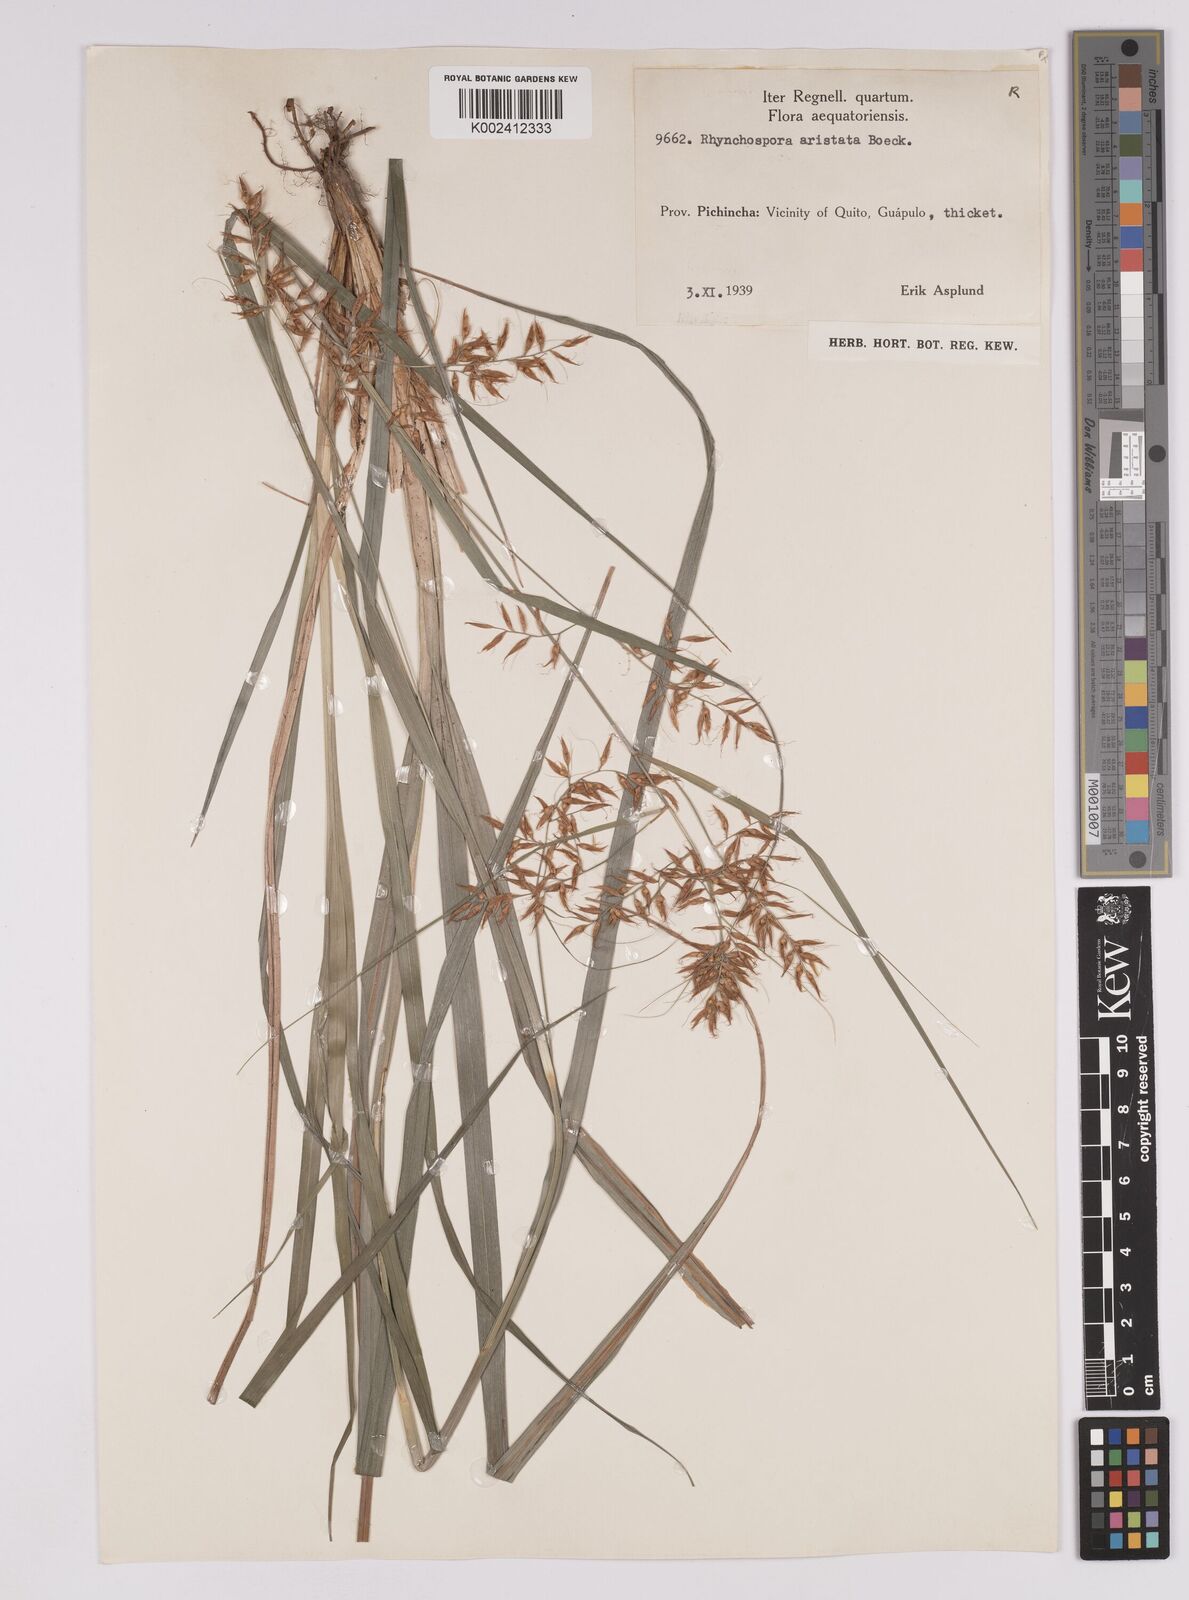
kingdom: Plantae
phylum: Tracheophyta
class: Liliopsida
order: Poales
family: Cyperaceae
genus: Rhynchospora
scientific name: Rhynchospora aristata
